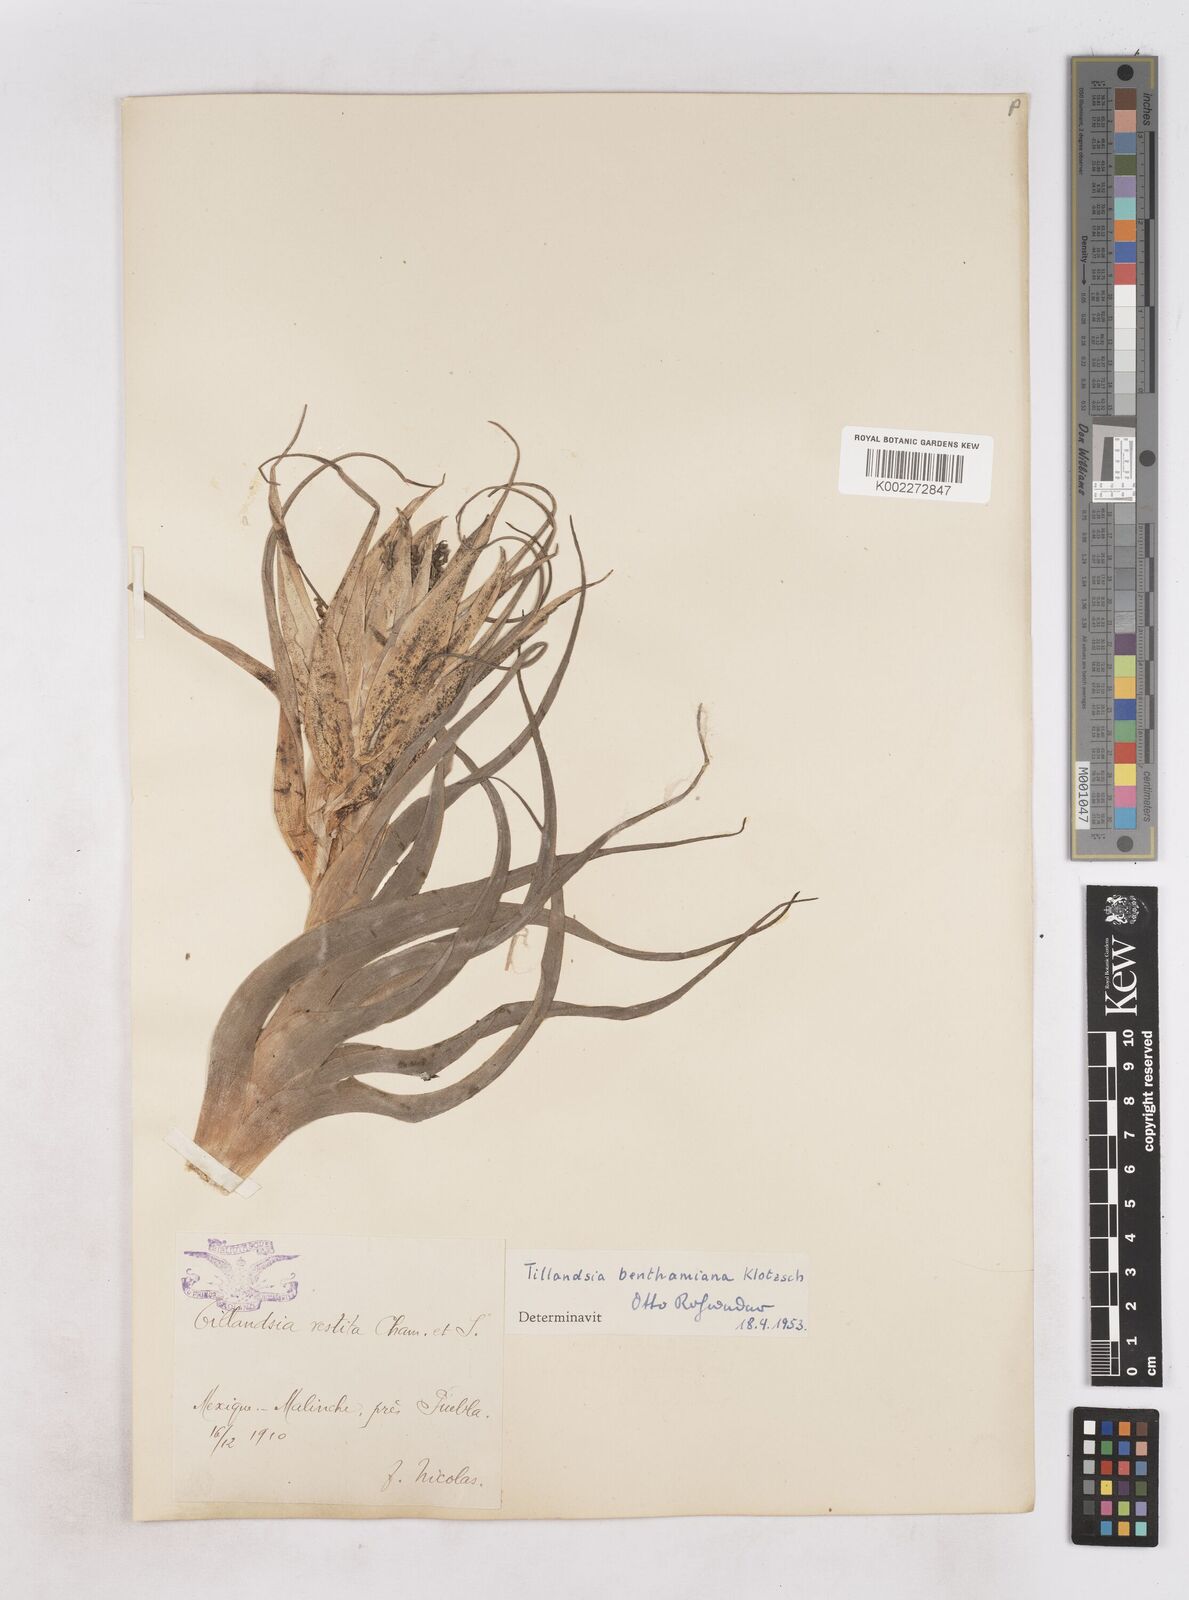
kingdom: Plantae
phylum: Tracheophyta
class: Liliopsida
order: Poales
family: Bromeliaceae
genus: Tillandsia
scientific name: Tillandsia erubescens
